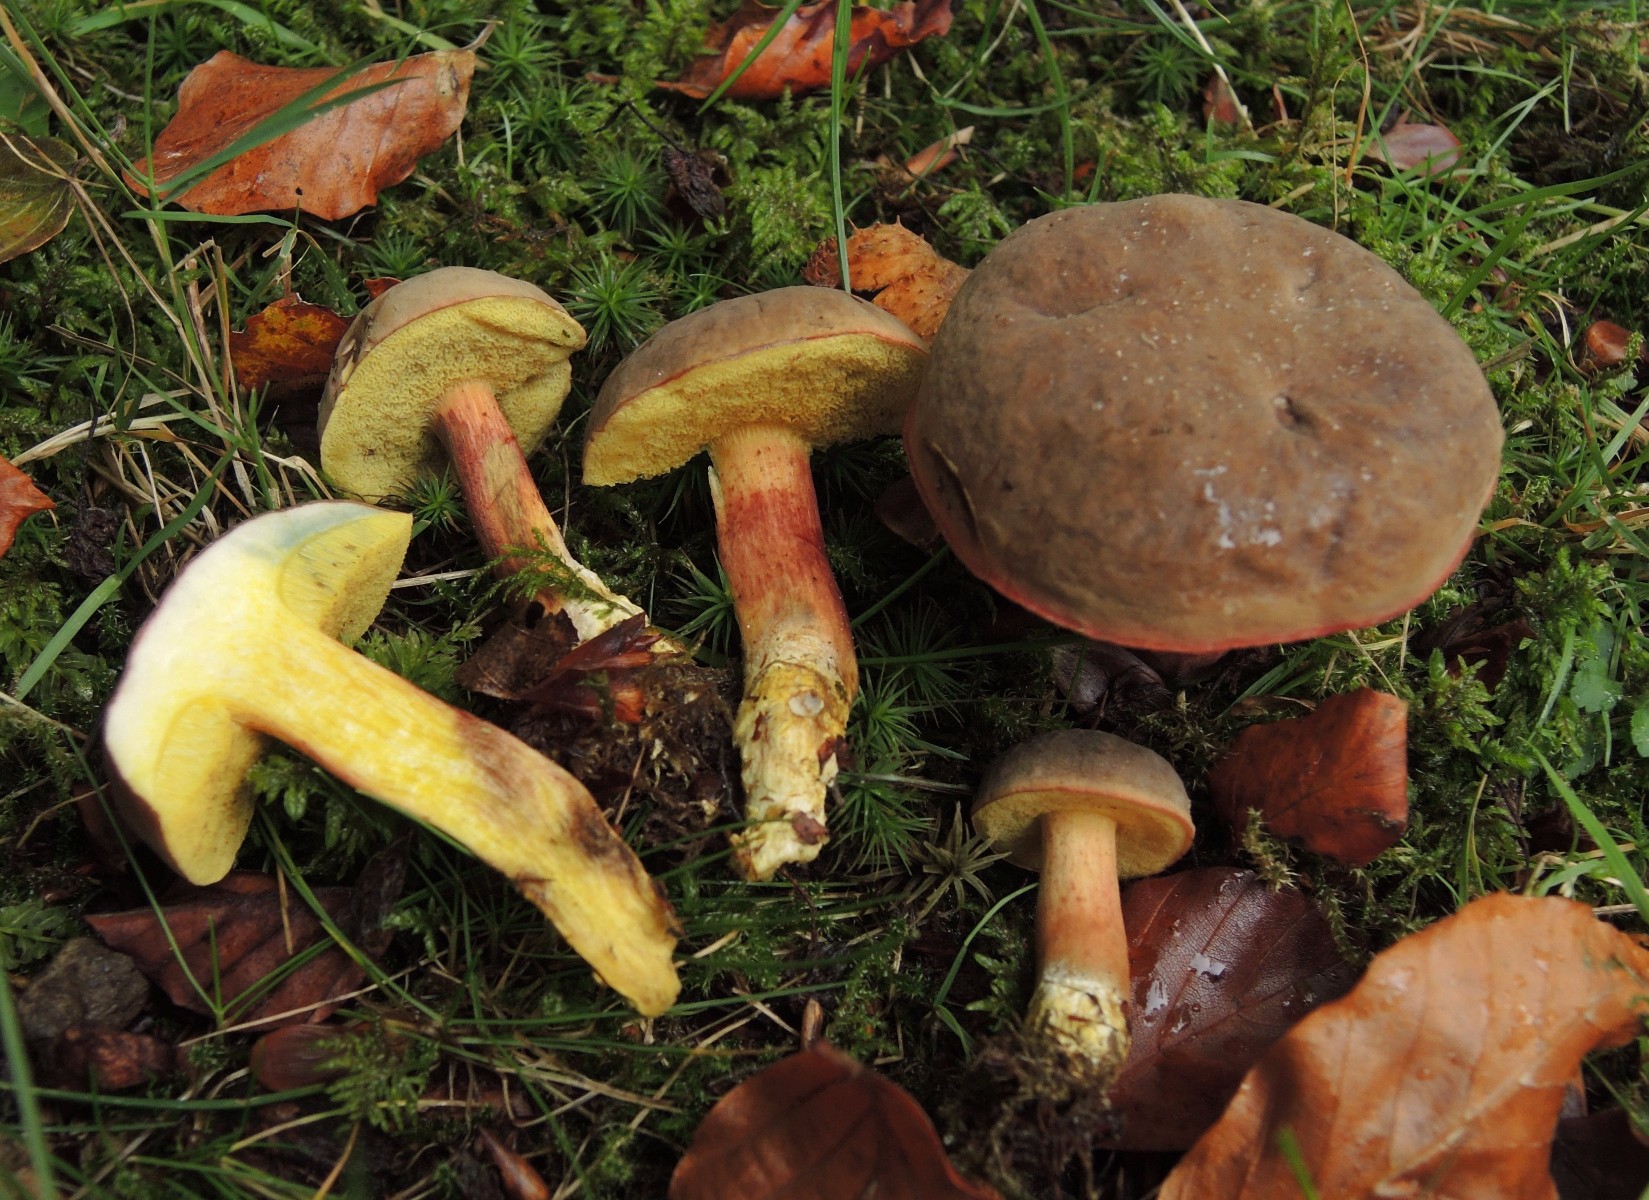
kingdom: Fungi
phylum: Basidiomycota
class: Agaricomycetes
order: Boletales
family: Boletaceae
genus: Xerocomellus
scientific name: Xerocomellus pruinatus
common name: dugget rørhat
